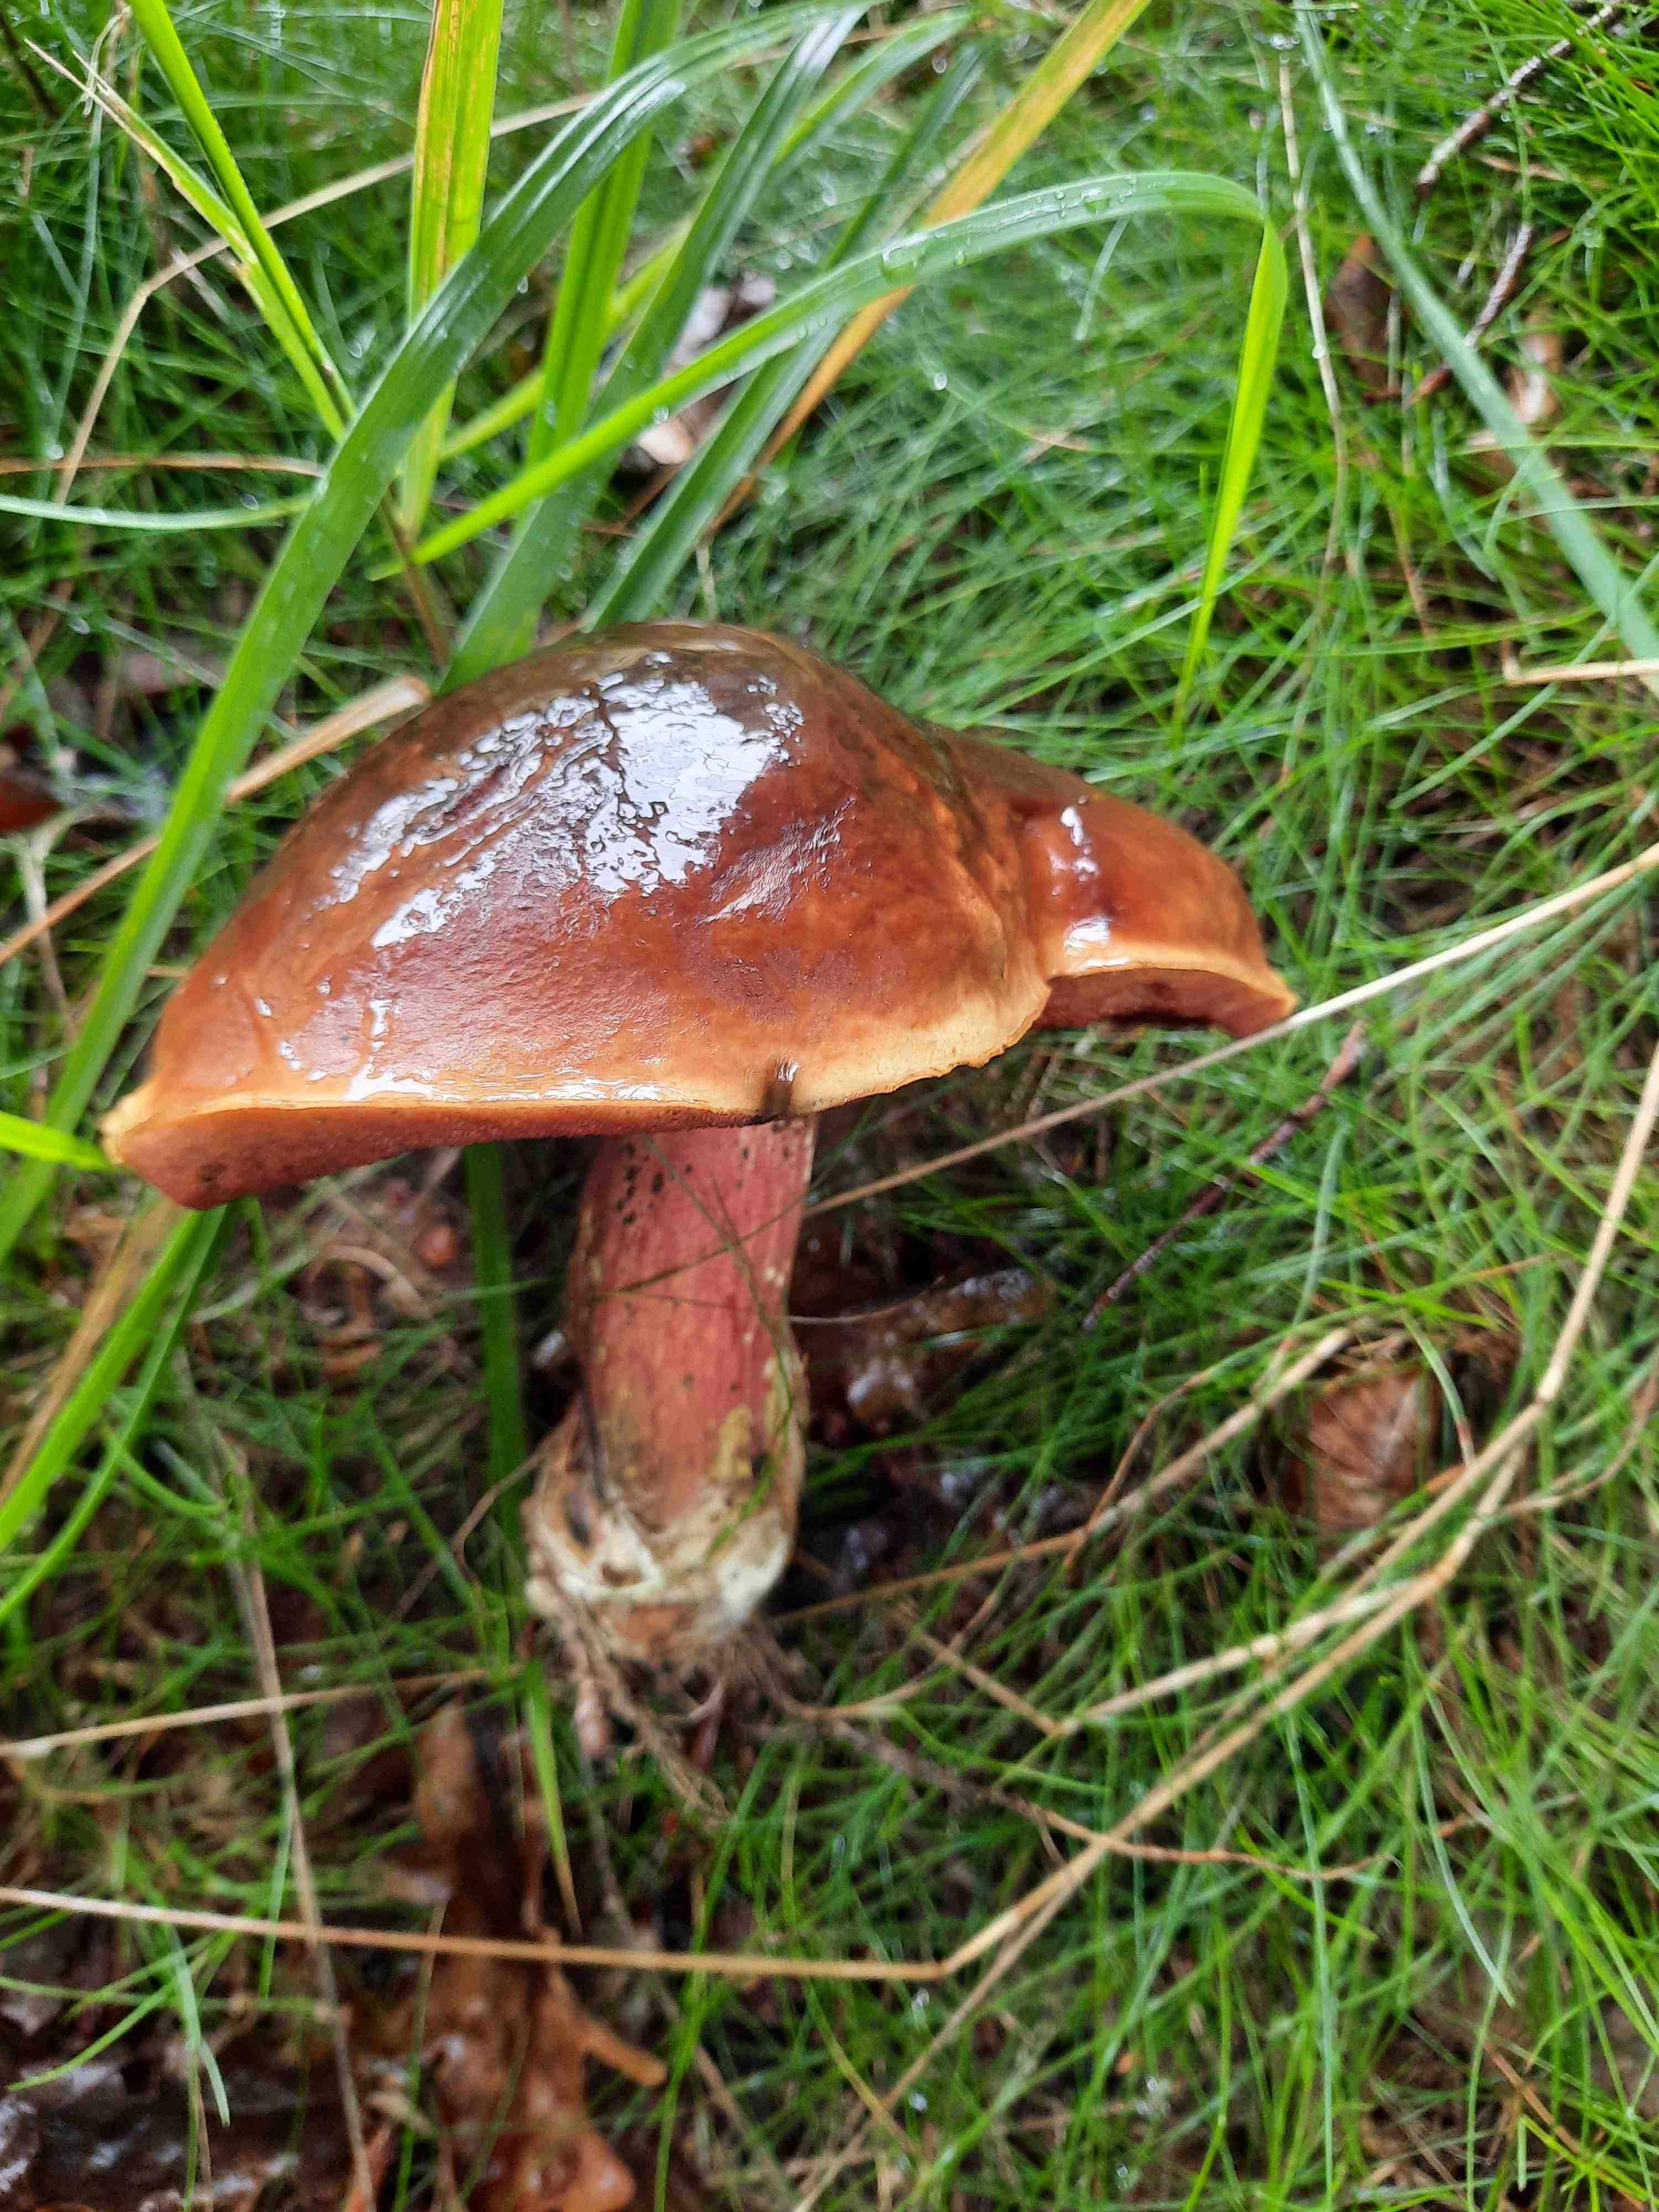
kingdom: Fungi
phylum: Basidiomycota
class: Agaricomycetes
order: Boletales
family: Boletaceae
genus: Neoboletus
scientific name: Neoboletus erythropus
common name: punktstokket indigorørhat
